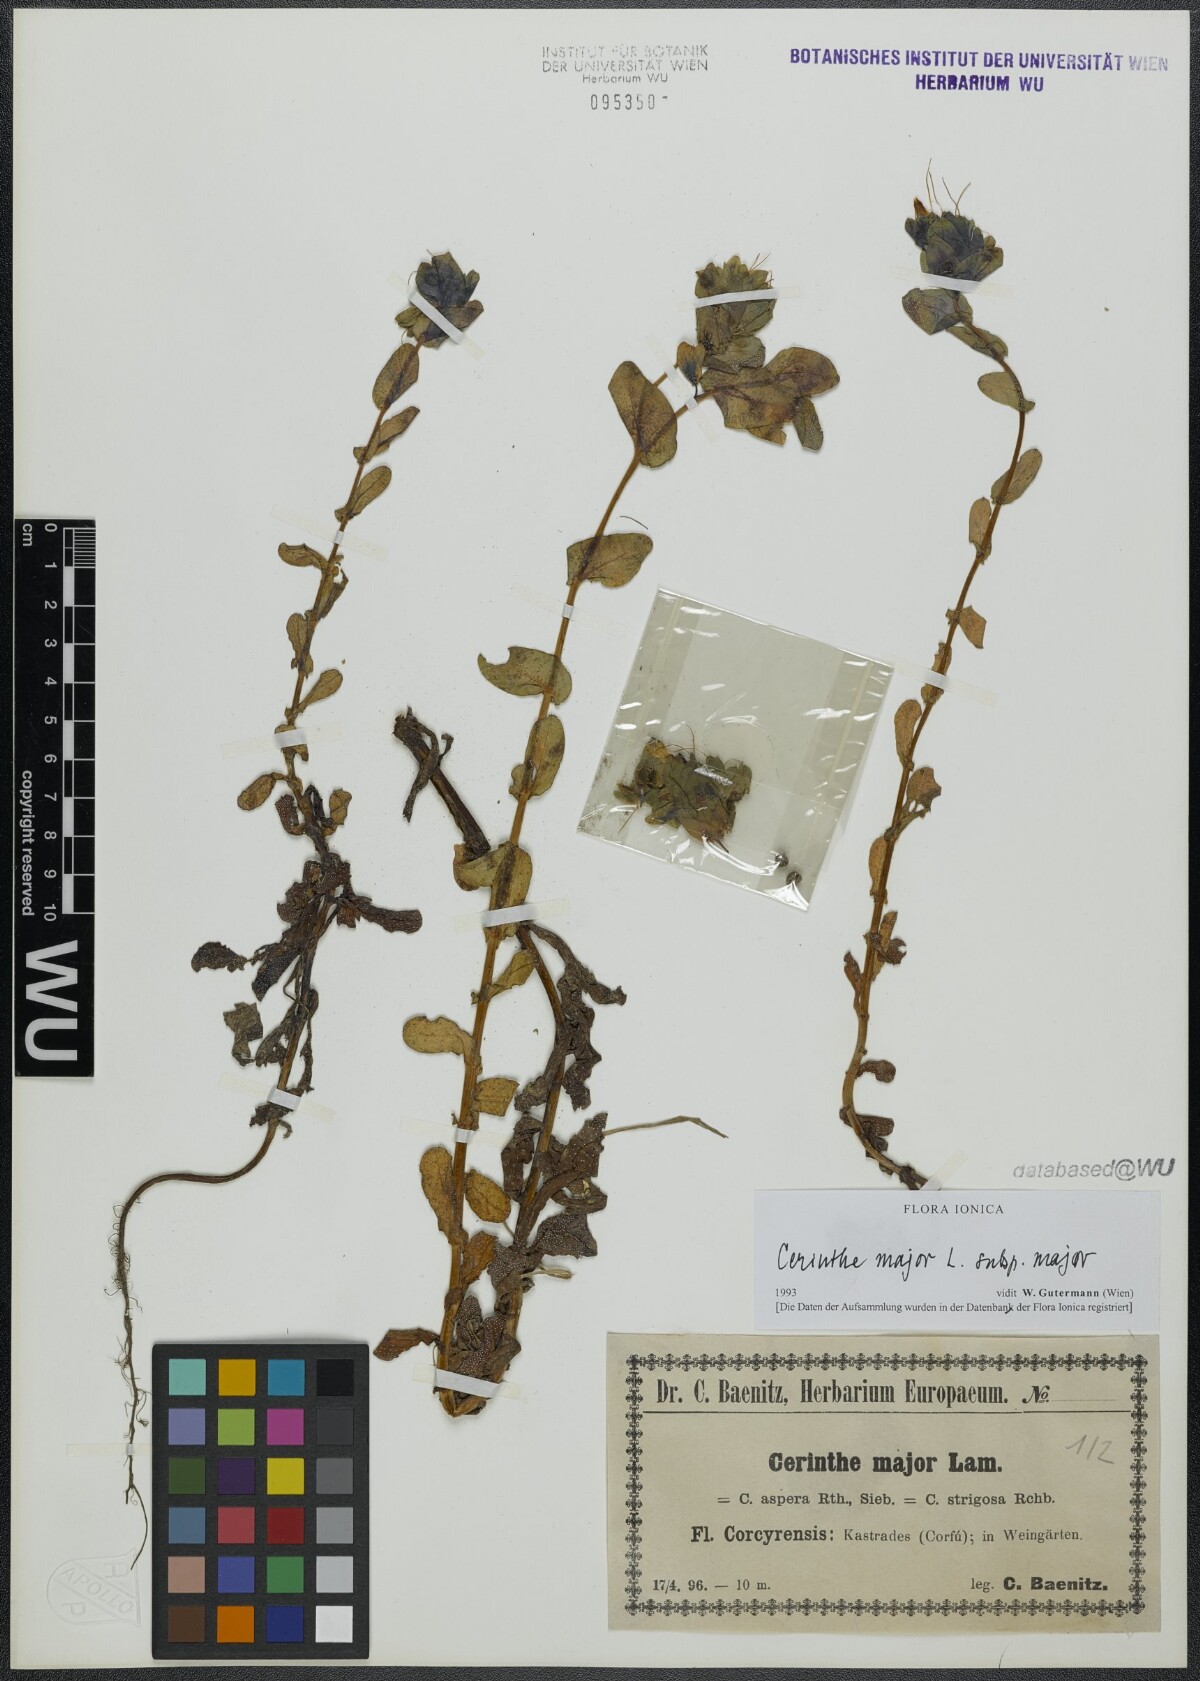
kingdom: Plantae
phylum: Tracheophyta
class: Magnoliopsida
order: Boraginales
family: Boraginaceae
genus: Cerinthe
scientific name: Cerinthe major
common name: Greater honeywort
